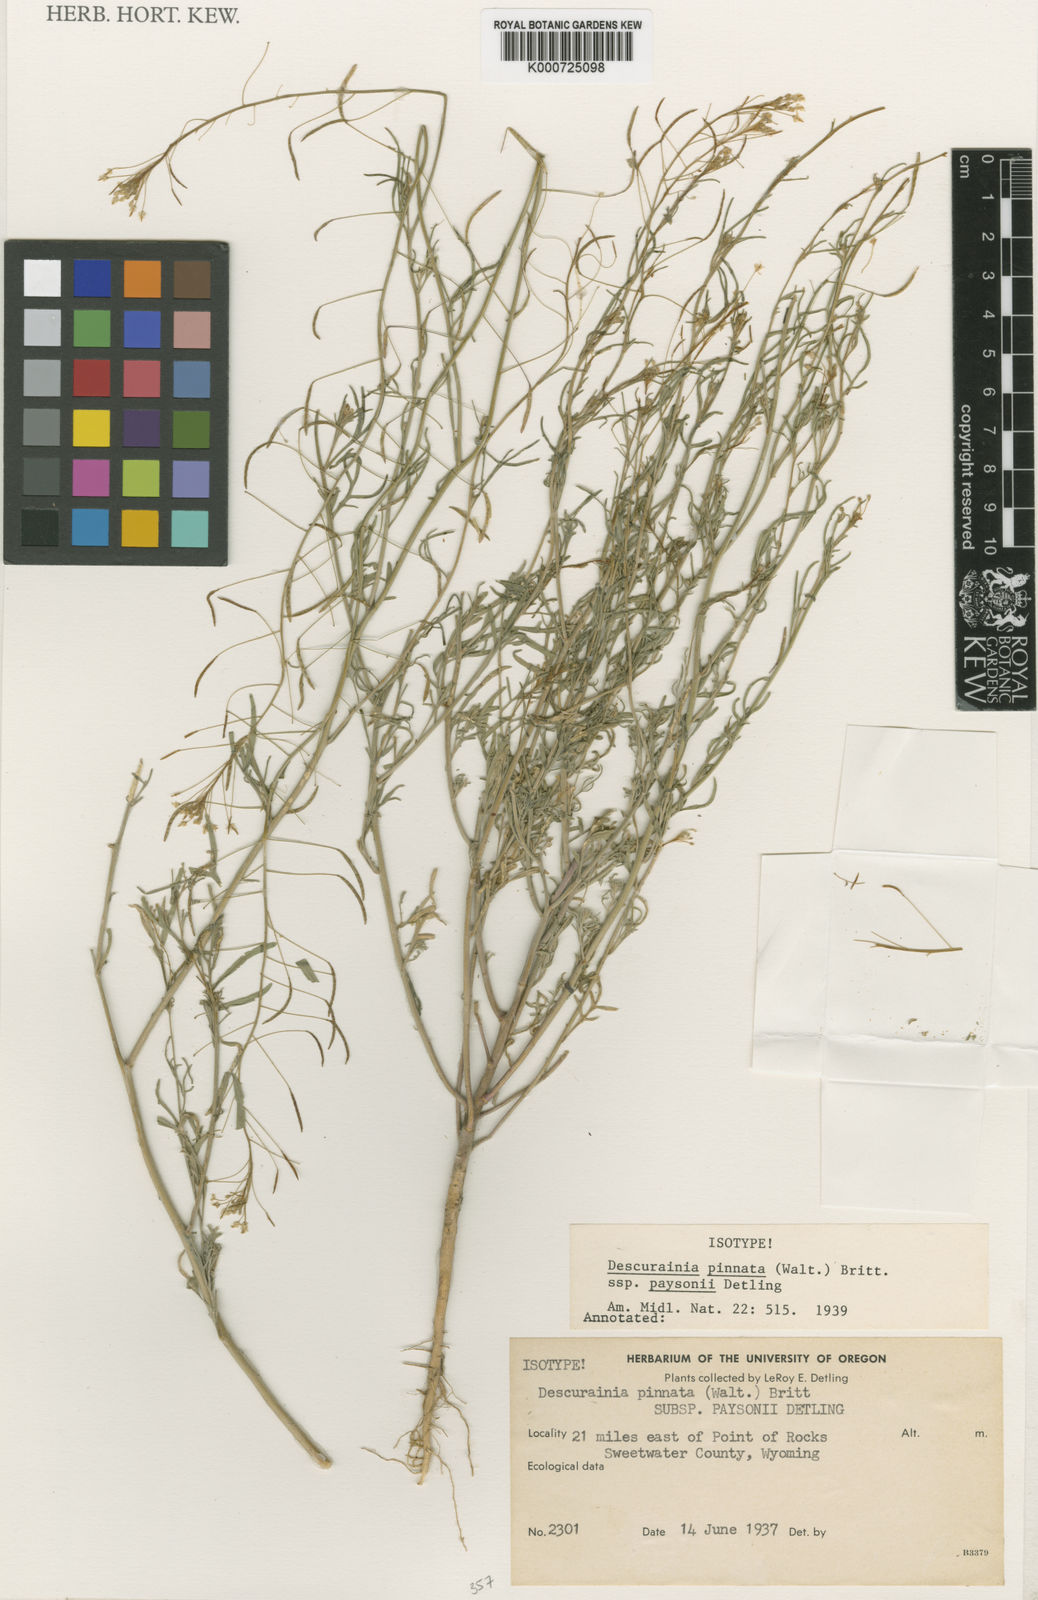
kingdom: Plantae
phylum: Tracheophyta
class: Magnoliopsida
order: Brassicales
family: Brassicaceae
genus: Descurainia
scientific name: Descurainia pinnata
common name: Western tansy mustard
